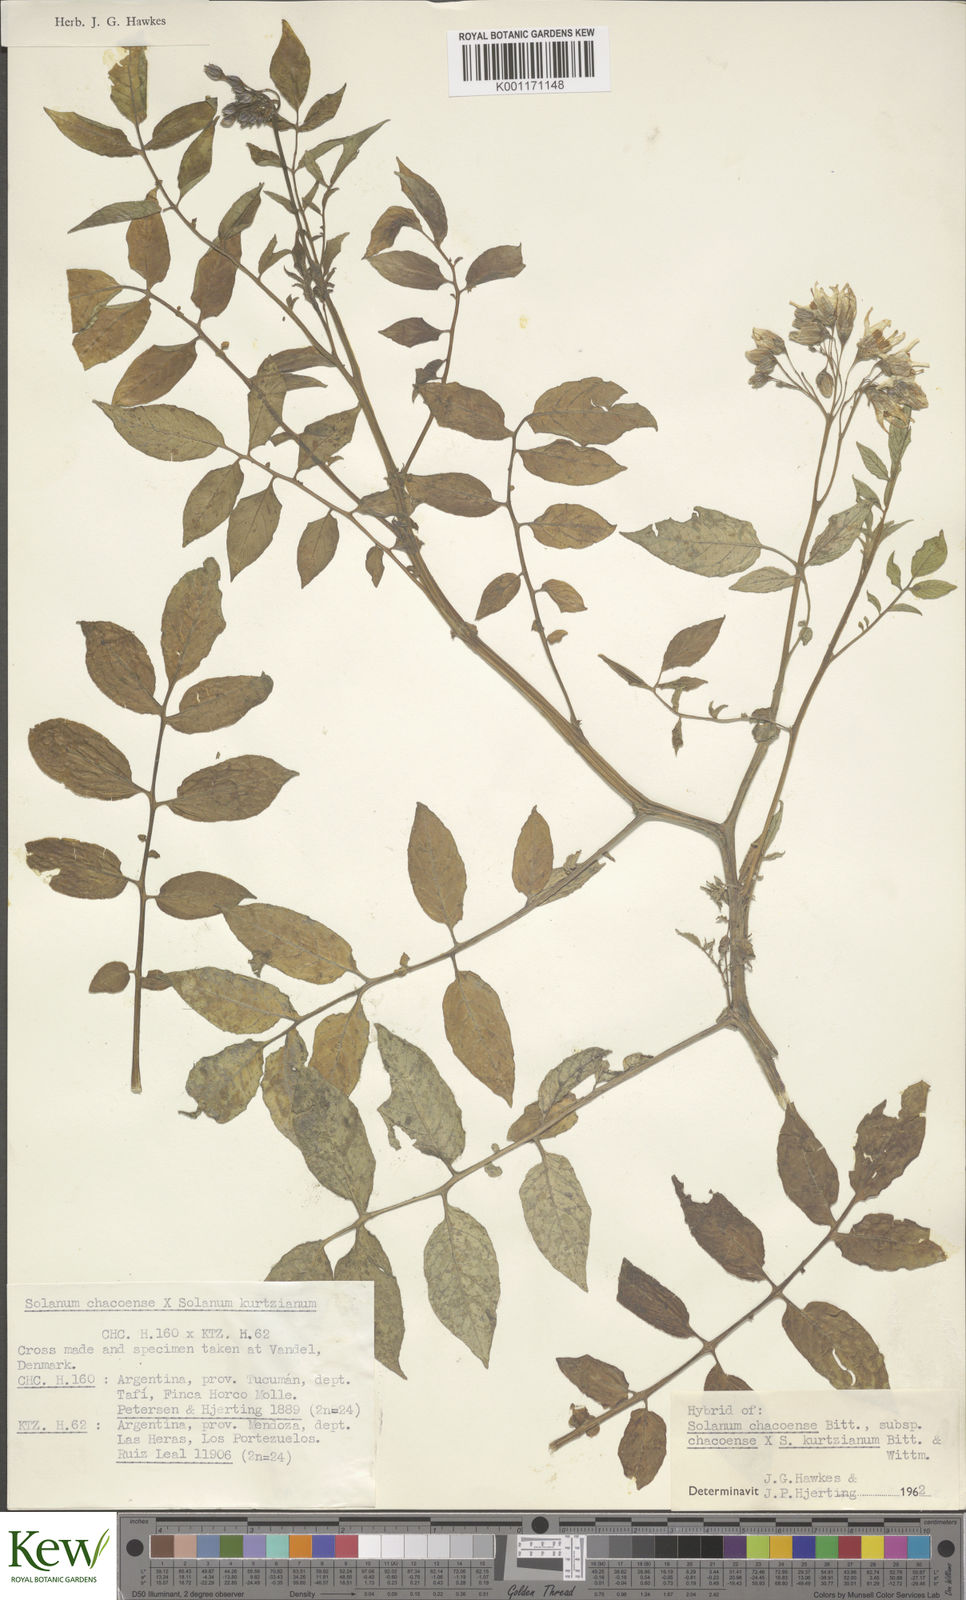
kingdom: Plantae
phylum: Tracheophyta
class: Magnoliopsida
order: Solanales
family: Solanaceae
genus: Solanum
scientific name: Solanum chacoense
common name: Chaco potato
